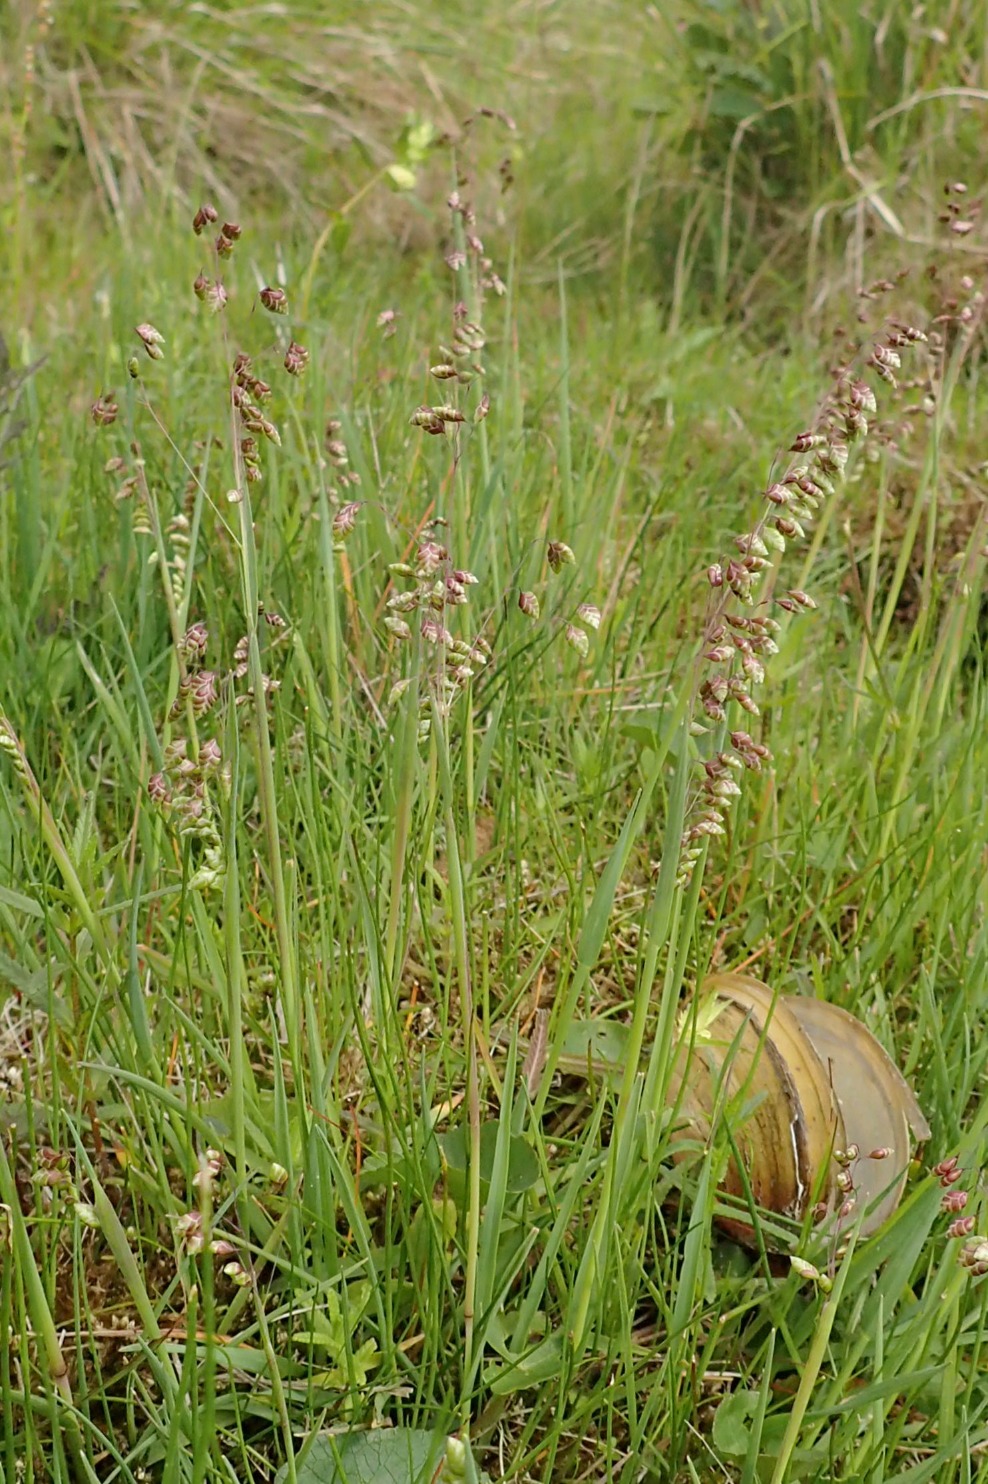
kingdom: Plantae
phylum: Tracheophyta
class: Liliopsida
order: Poales
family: Poaceae
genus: Briza
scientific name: Briza media
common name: Hjertegræs
